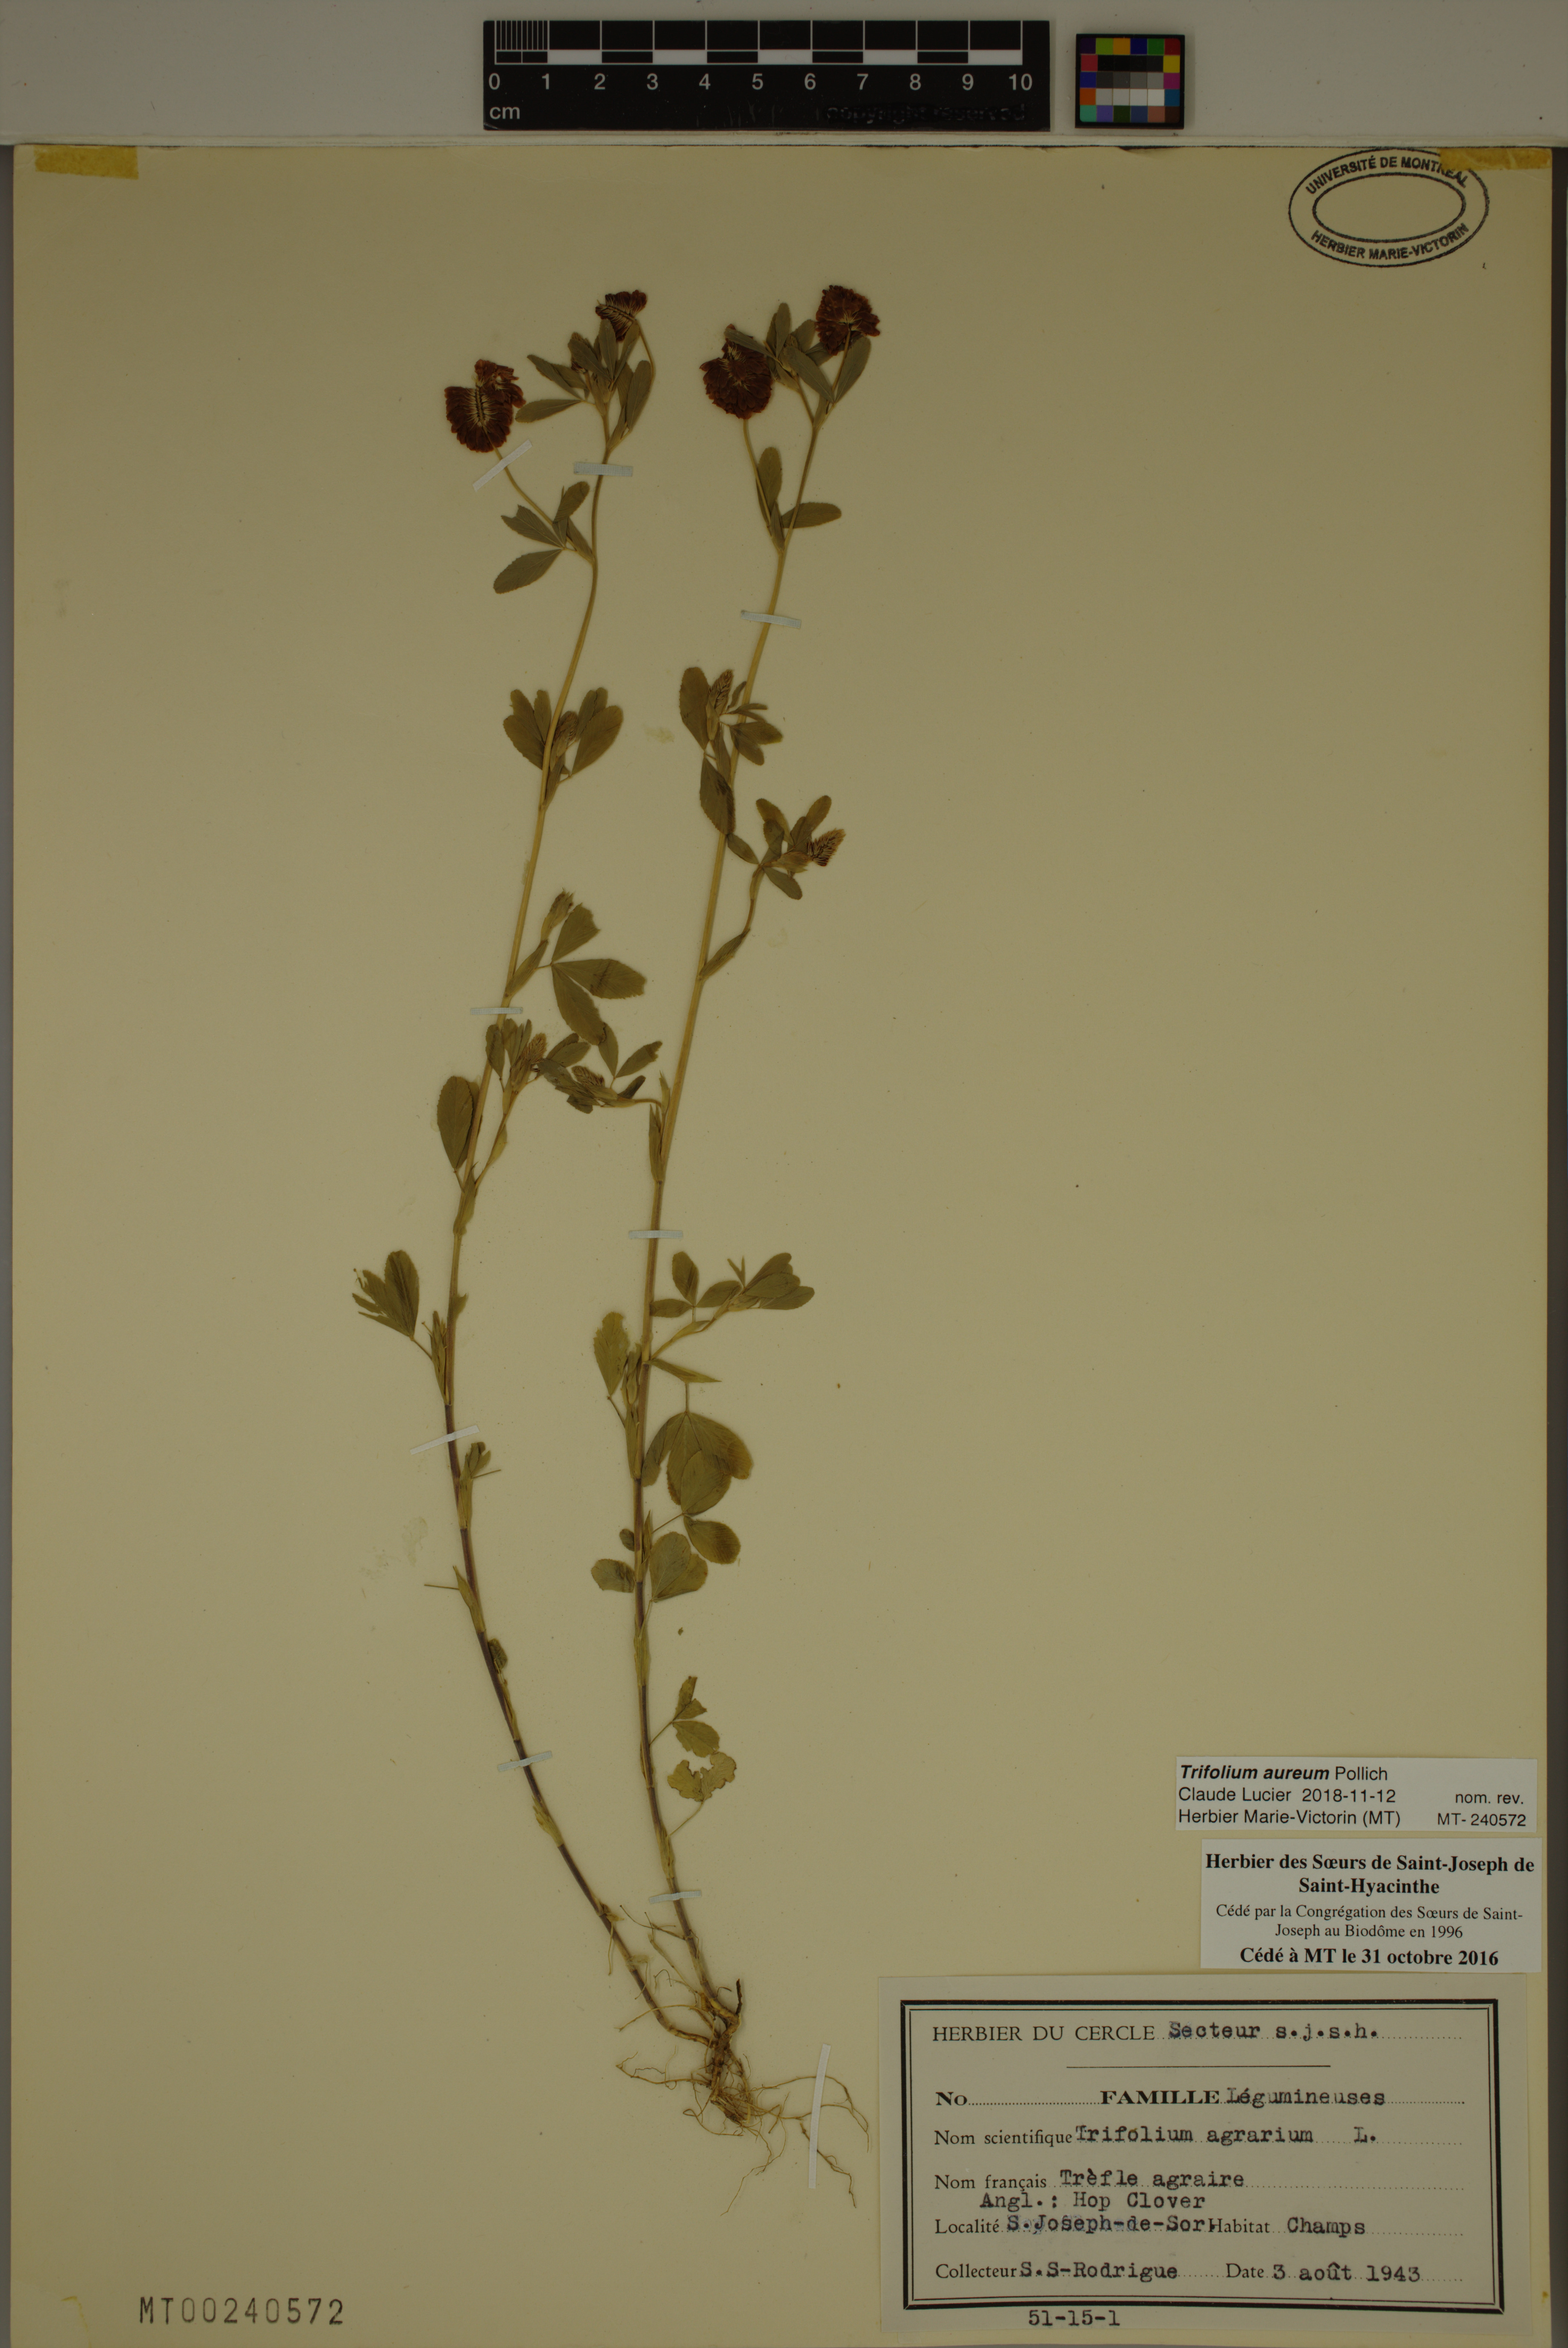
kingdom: Plantae
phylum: Tracheophyta
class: Magnoliopsida
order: Fabales
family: Fabaceae
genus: Trifolium
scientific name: Trifolium aureum
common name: Golden clover
